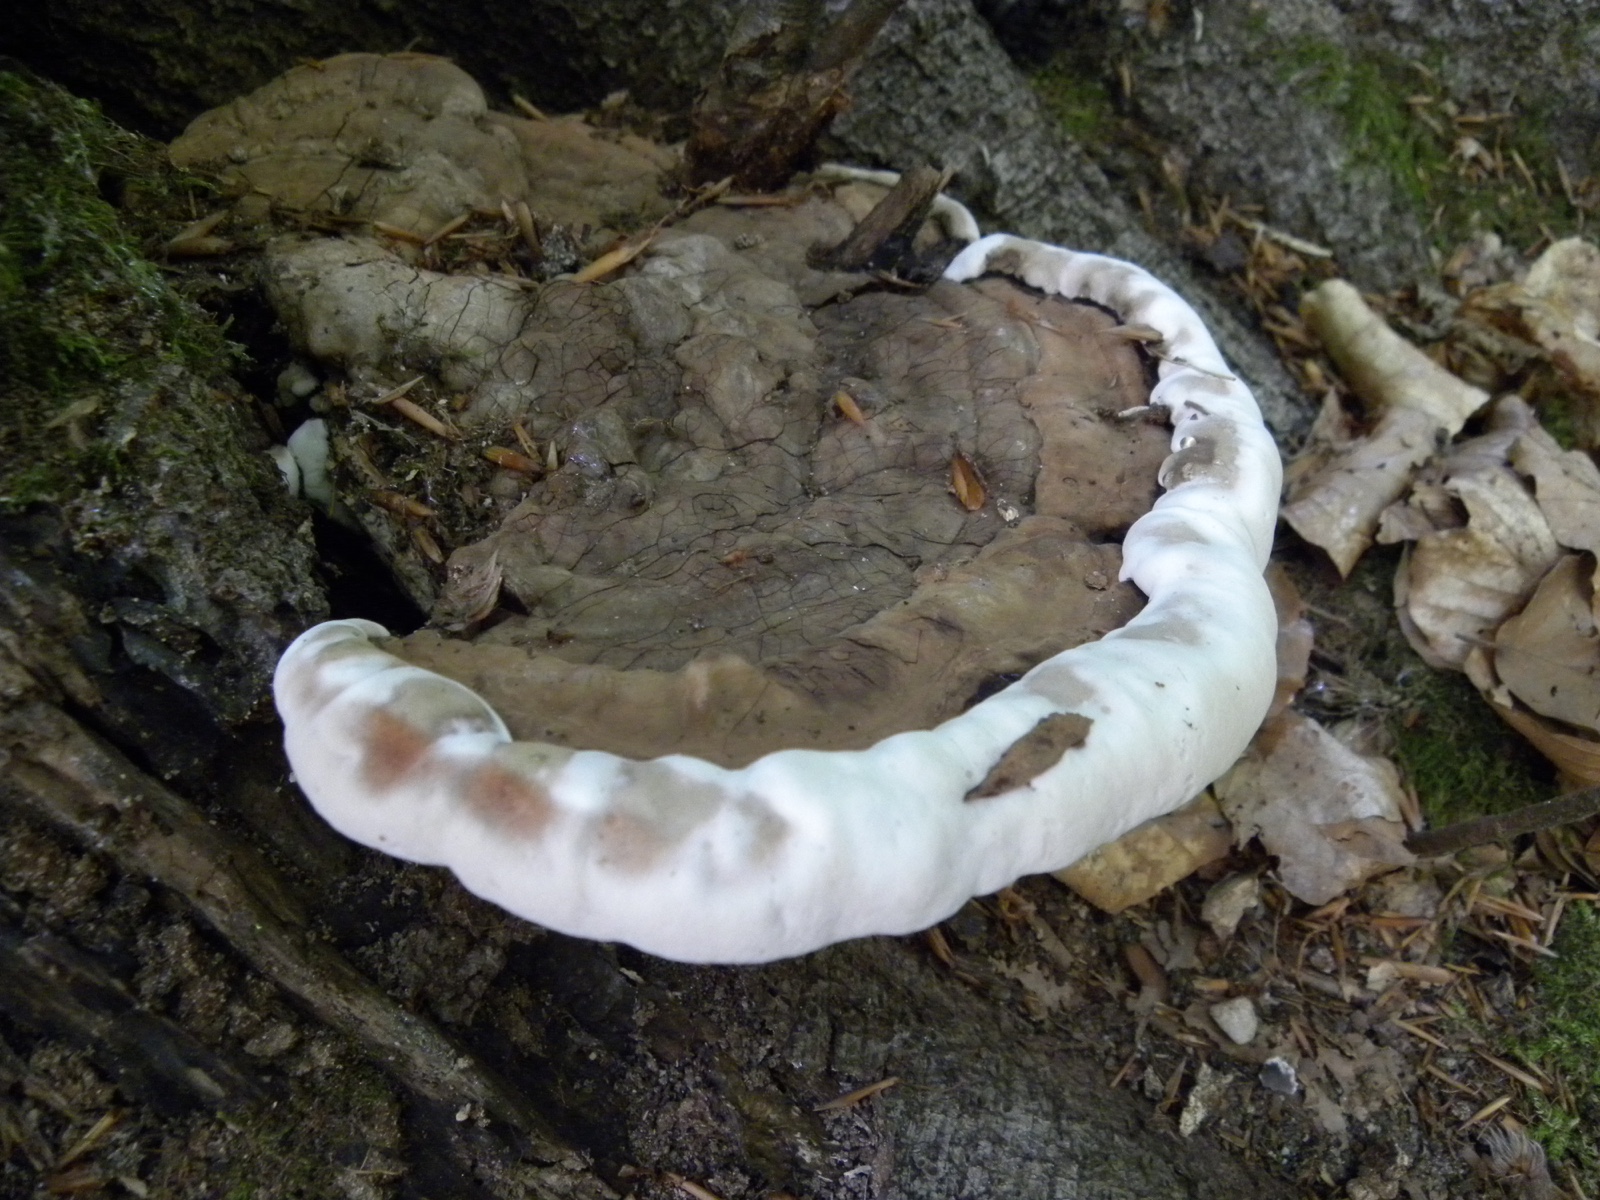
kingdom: Fungi
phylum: Basidiomycota
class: Agaricomycetes
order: Polyporales
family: Polyporaceae
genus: Ganoderma
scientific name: Ganoderma applanatum
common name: flad lakporesvamp
